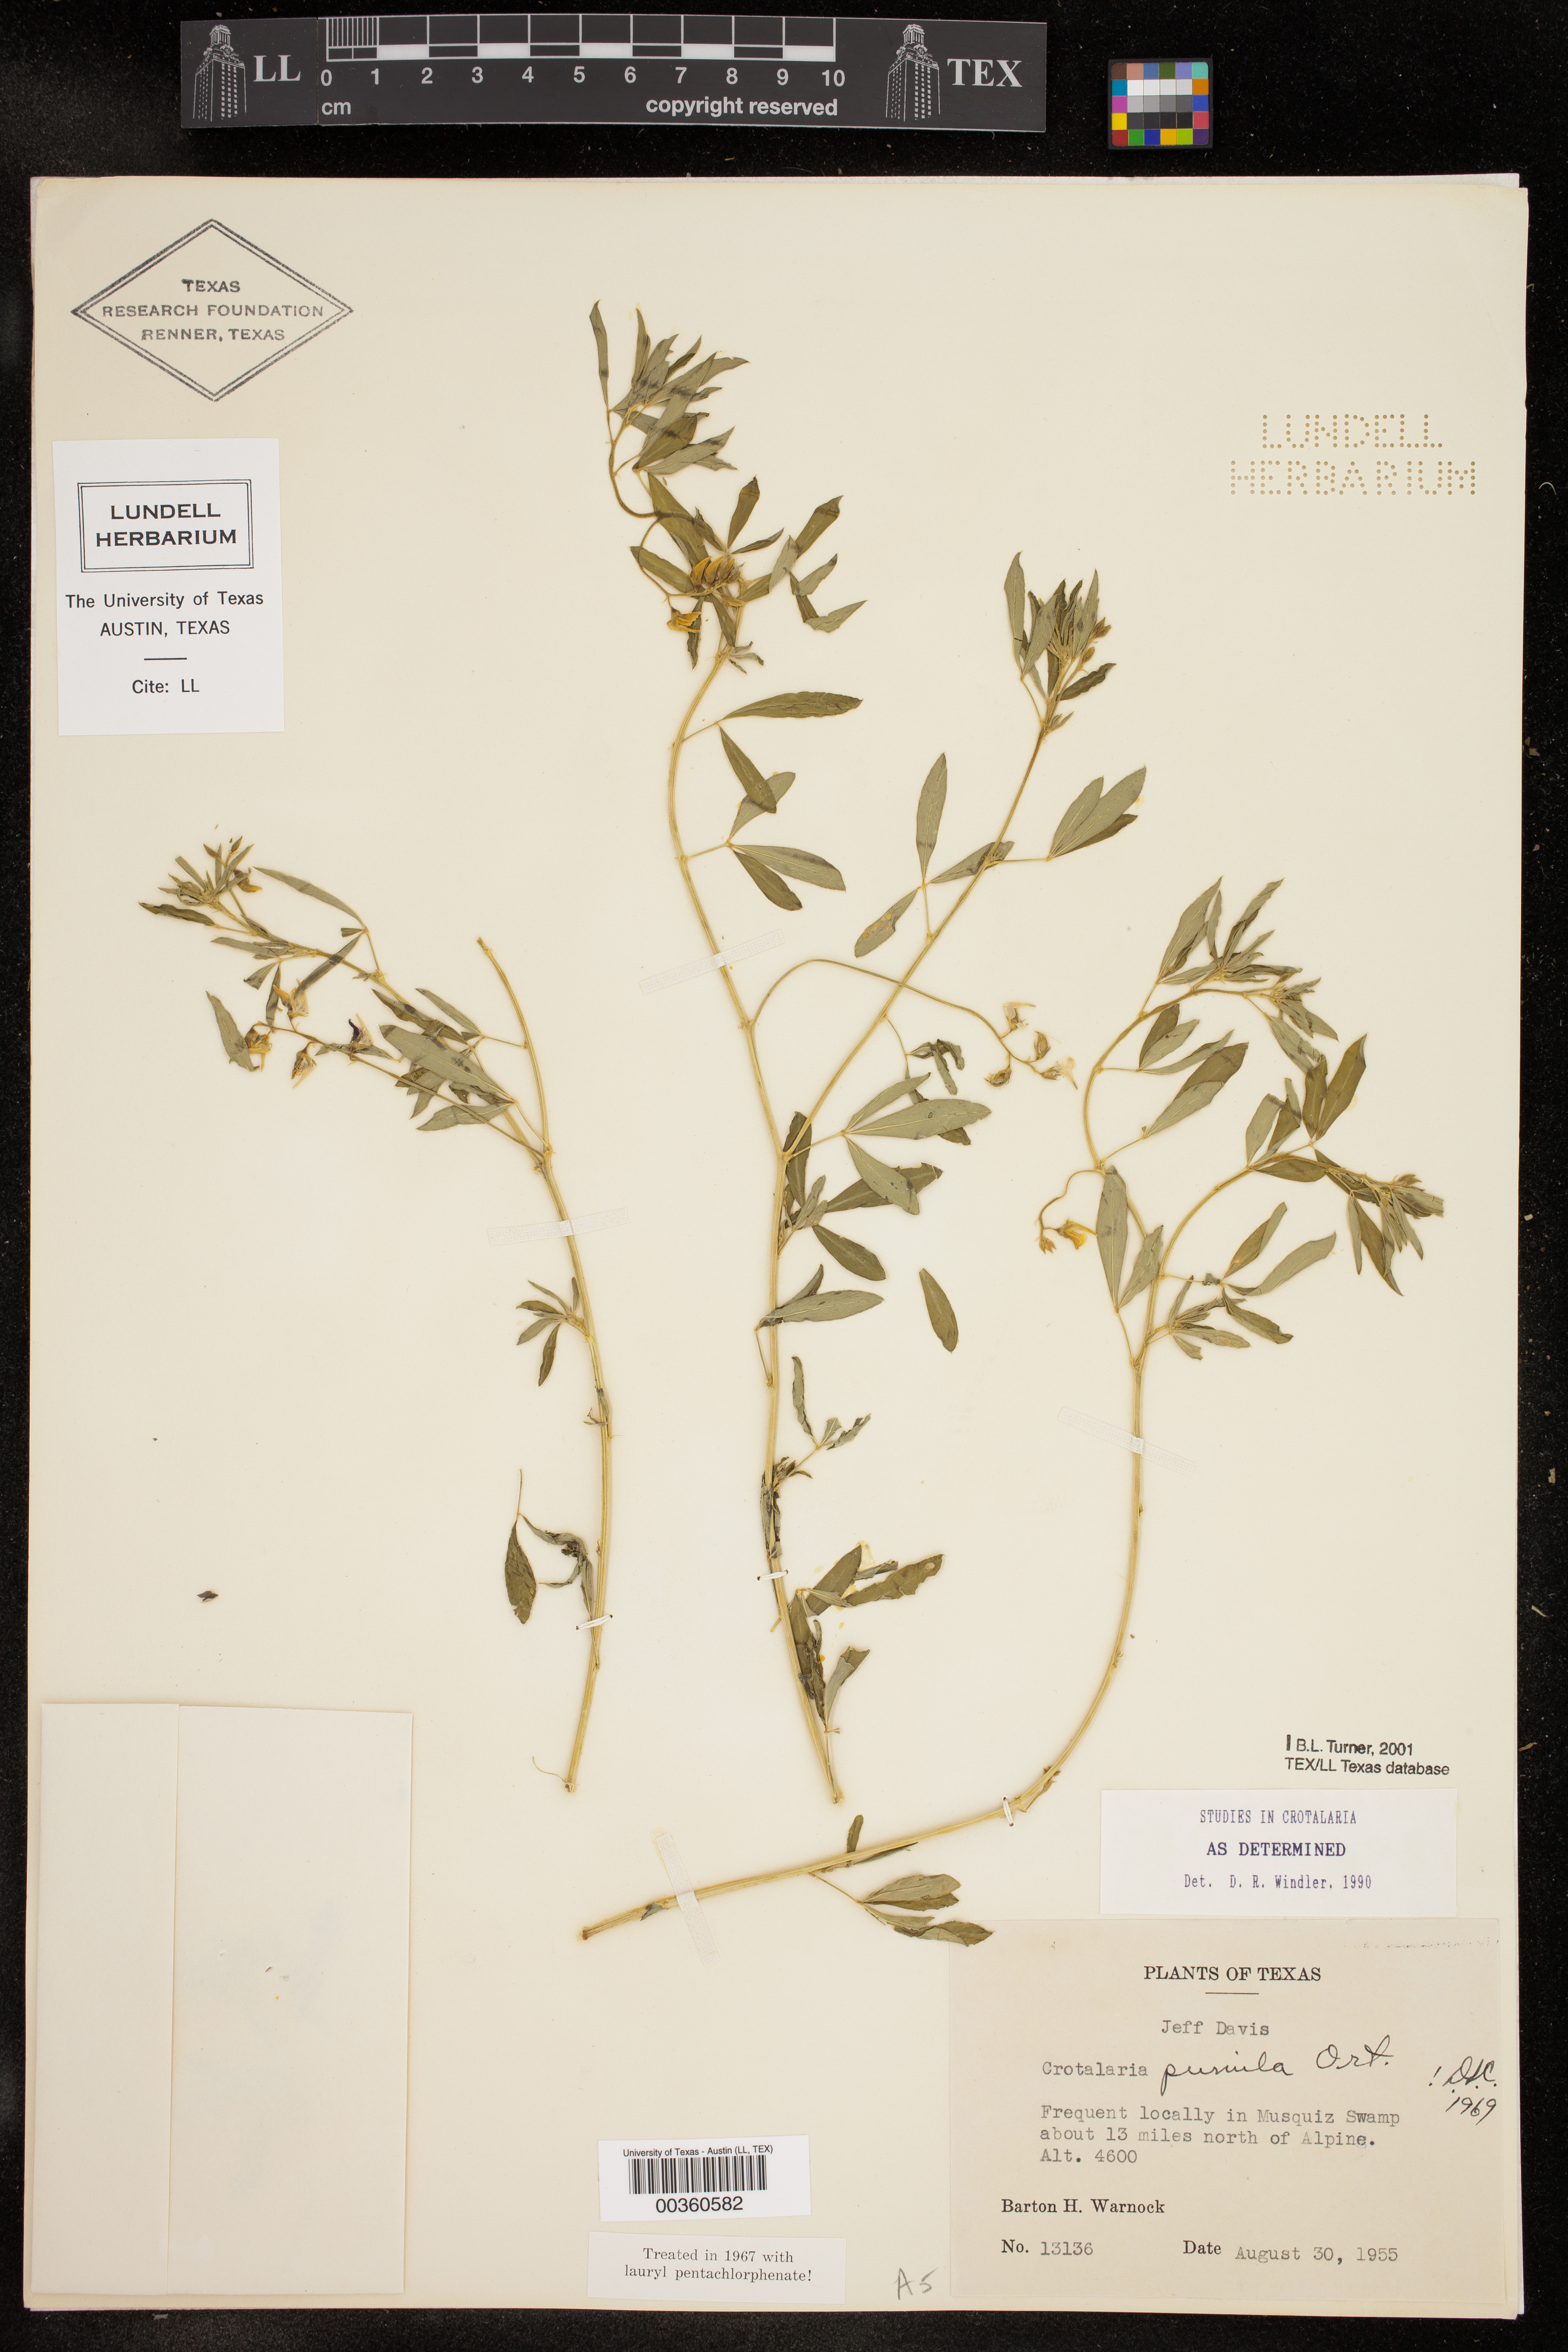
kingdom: Plantae
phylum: Tracheophyta
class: Magnoliopsida
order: Fabales
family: Fabaceae
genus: Crotalaria
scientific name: Crotalaria pumila
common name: Low rattlebox
